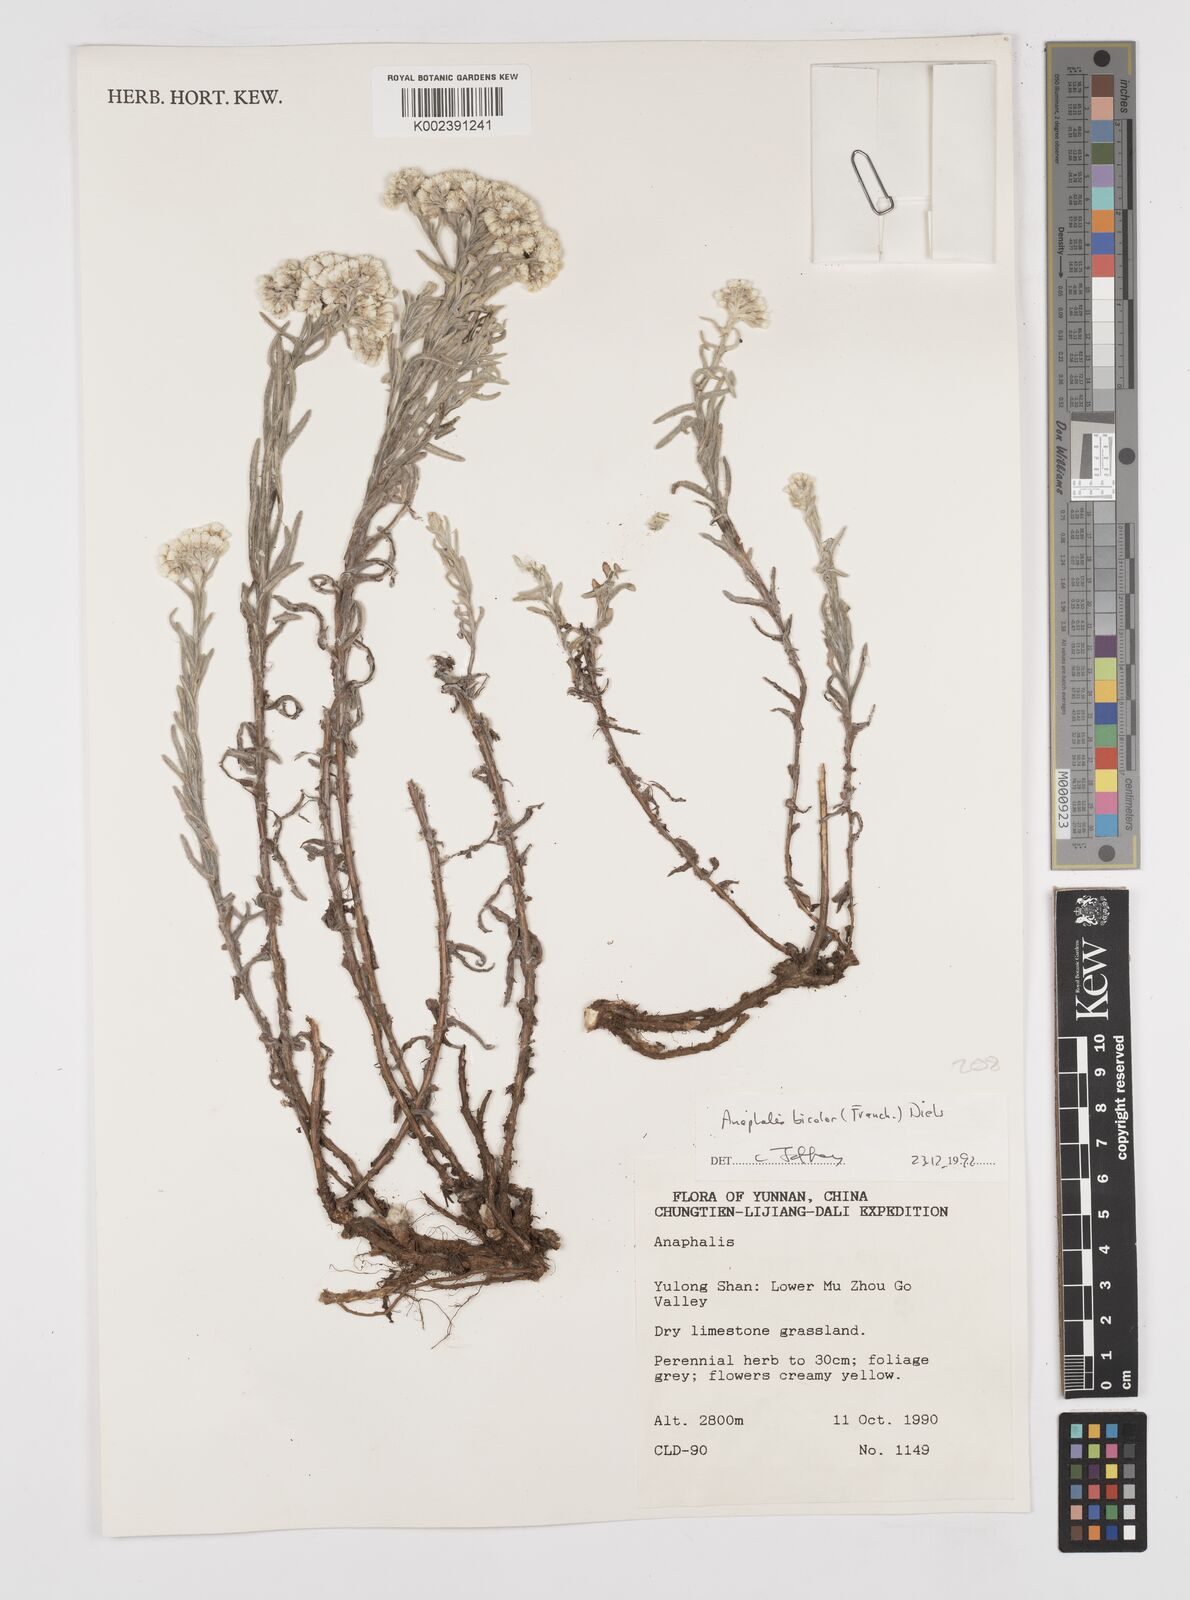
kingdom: Plantae
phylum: Tracheophyta
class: Magnoliopsida
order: Asterales
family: Asteraceae
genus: Anaphalis
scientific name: Anaphalis bicolor
